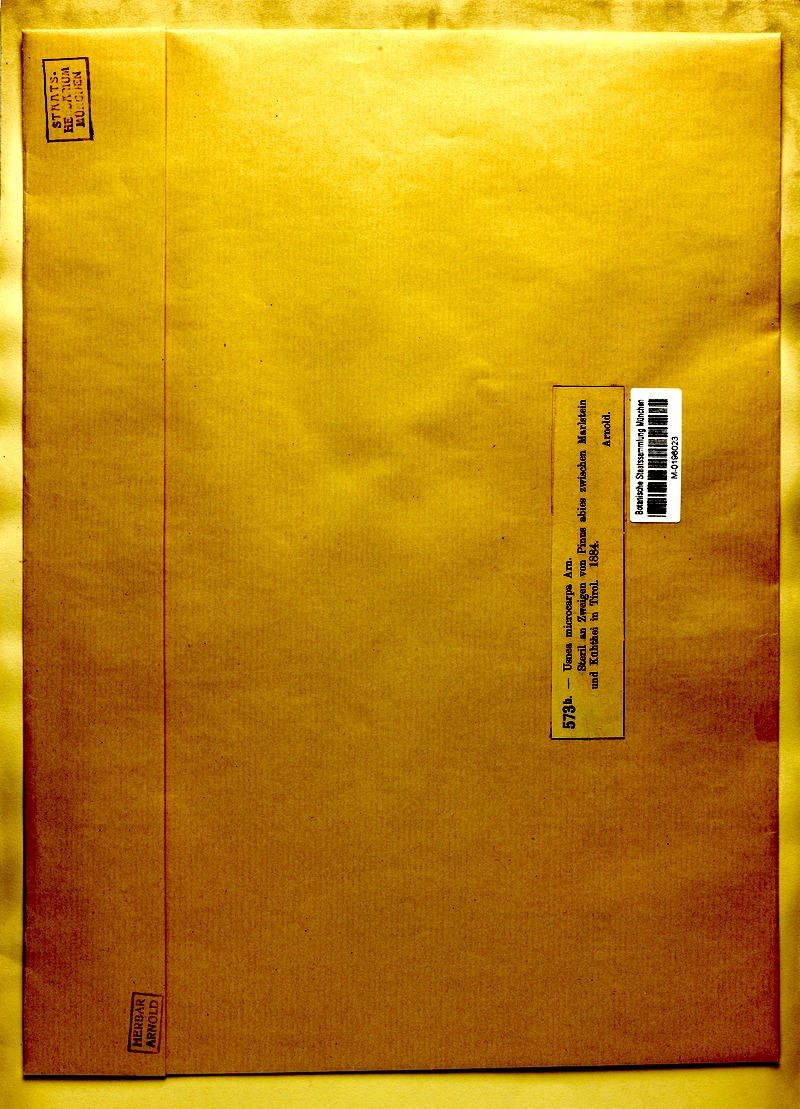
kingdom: Fungi
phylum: Ascomycota
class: Lecanoromycetes
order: Lecanorales
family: Parmeliaceae
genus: Usnea
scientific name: Usnea cavernosa
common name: Pitted beard lichen
